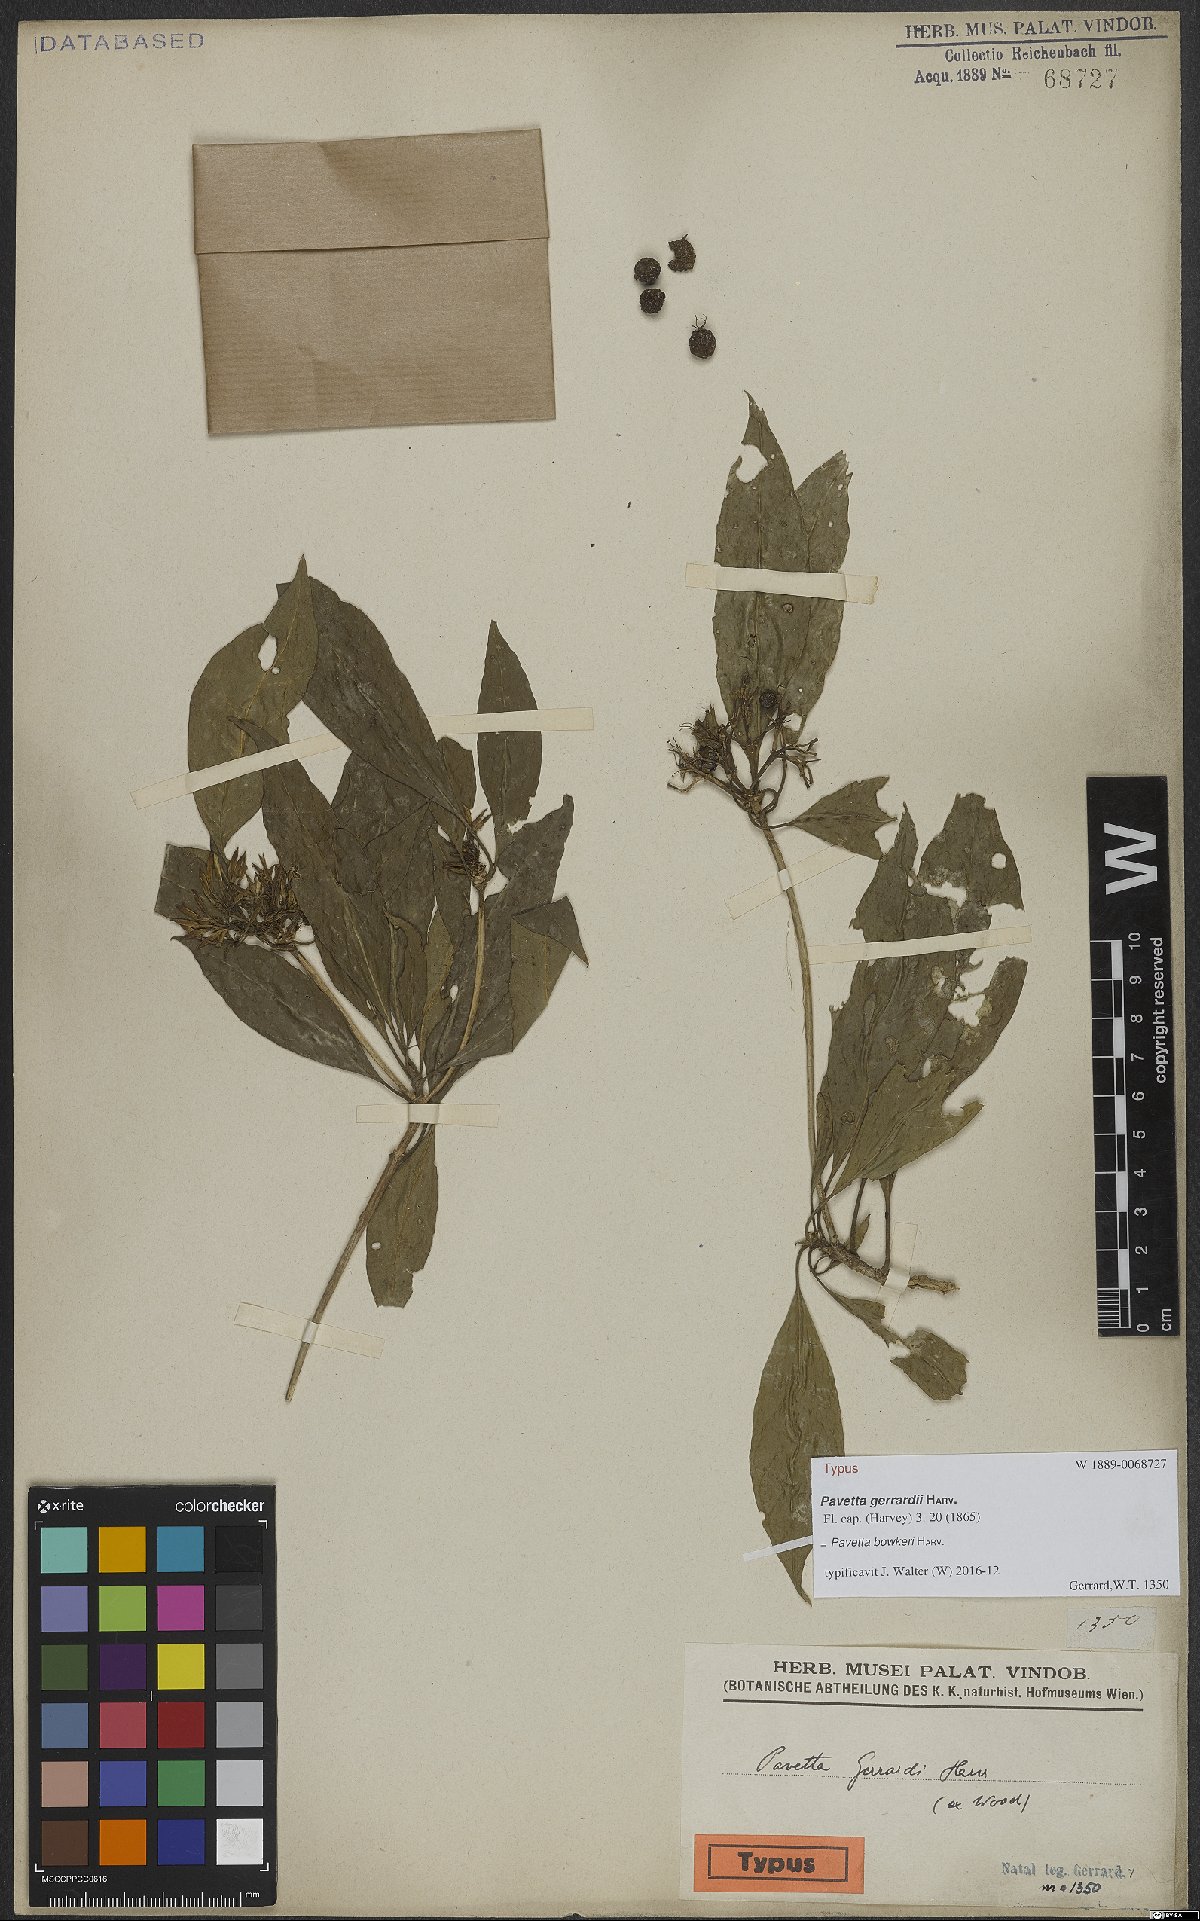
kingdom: Plantae
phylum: Tracheophyta
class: Magnoliopsida
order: Gentianales
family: Rubiaceae
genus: Pavetta
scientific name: Pavetta bowkeri
